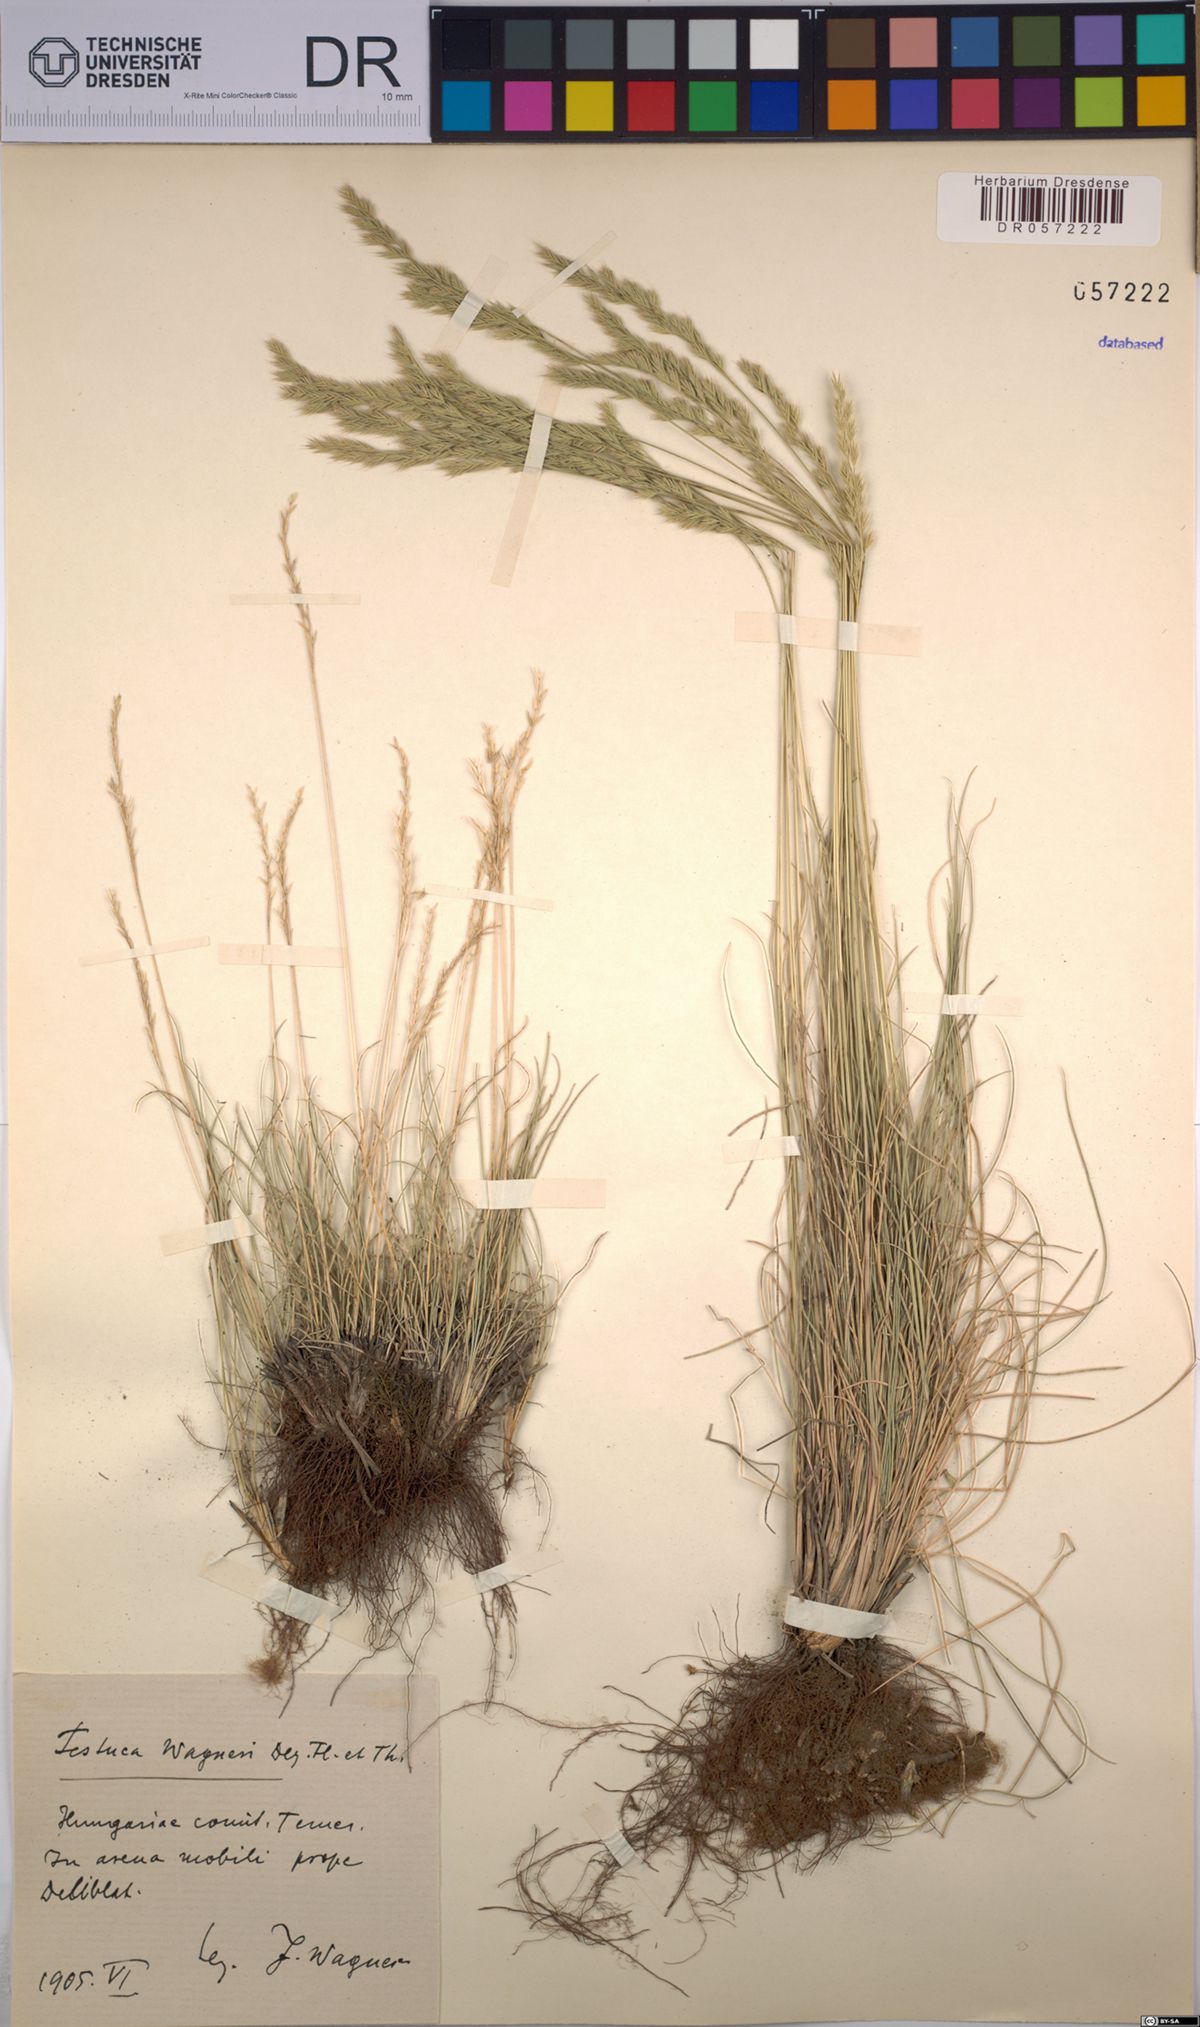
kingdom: Plantae
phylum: Tracheophyta
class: Liliopsida
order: Poales
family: Poaceae
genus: Festuca
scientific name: Festuca wagneri
